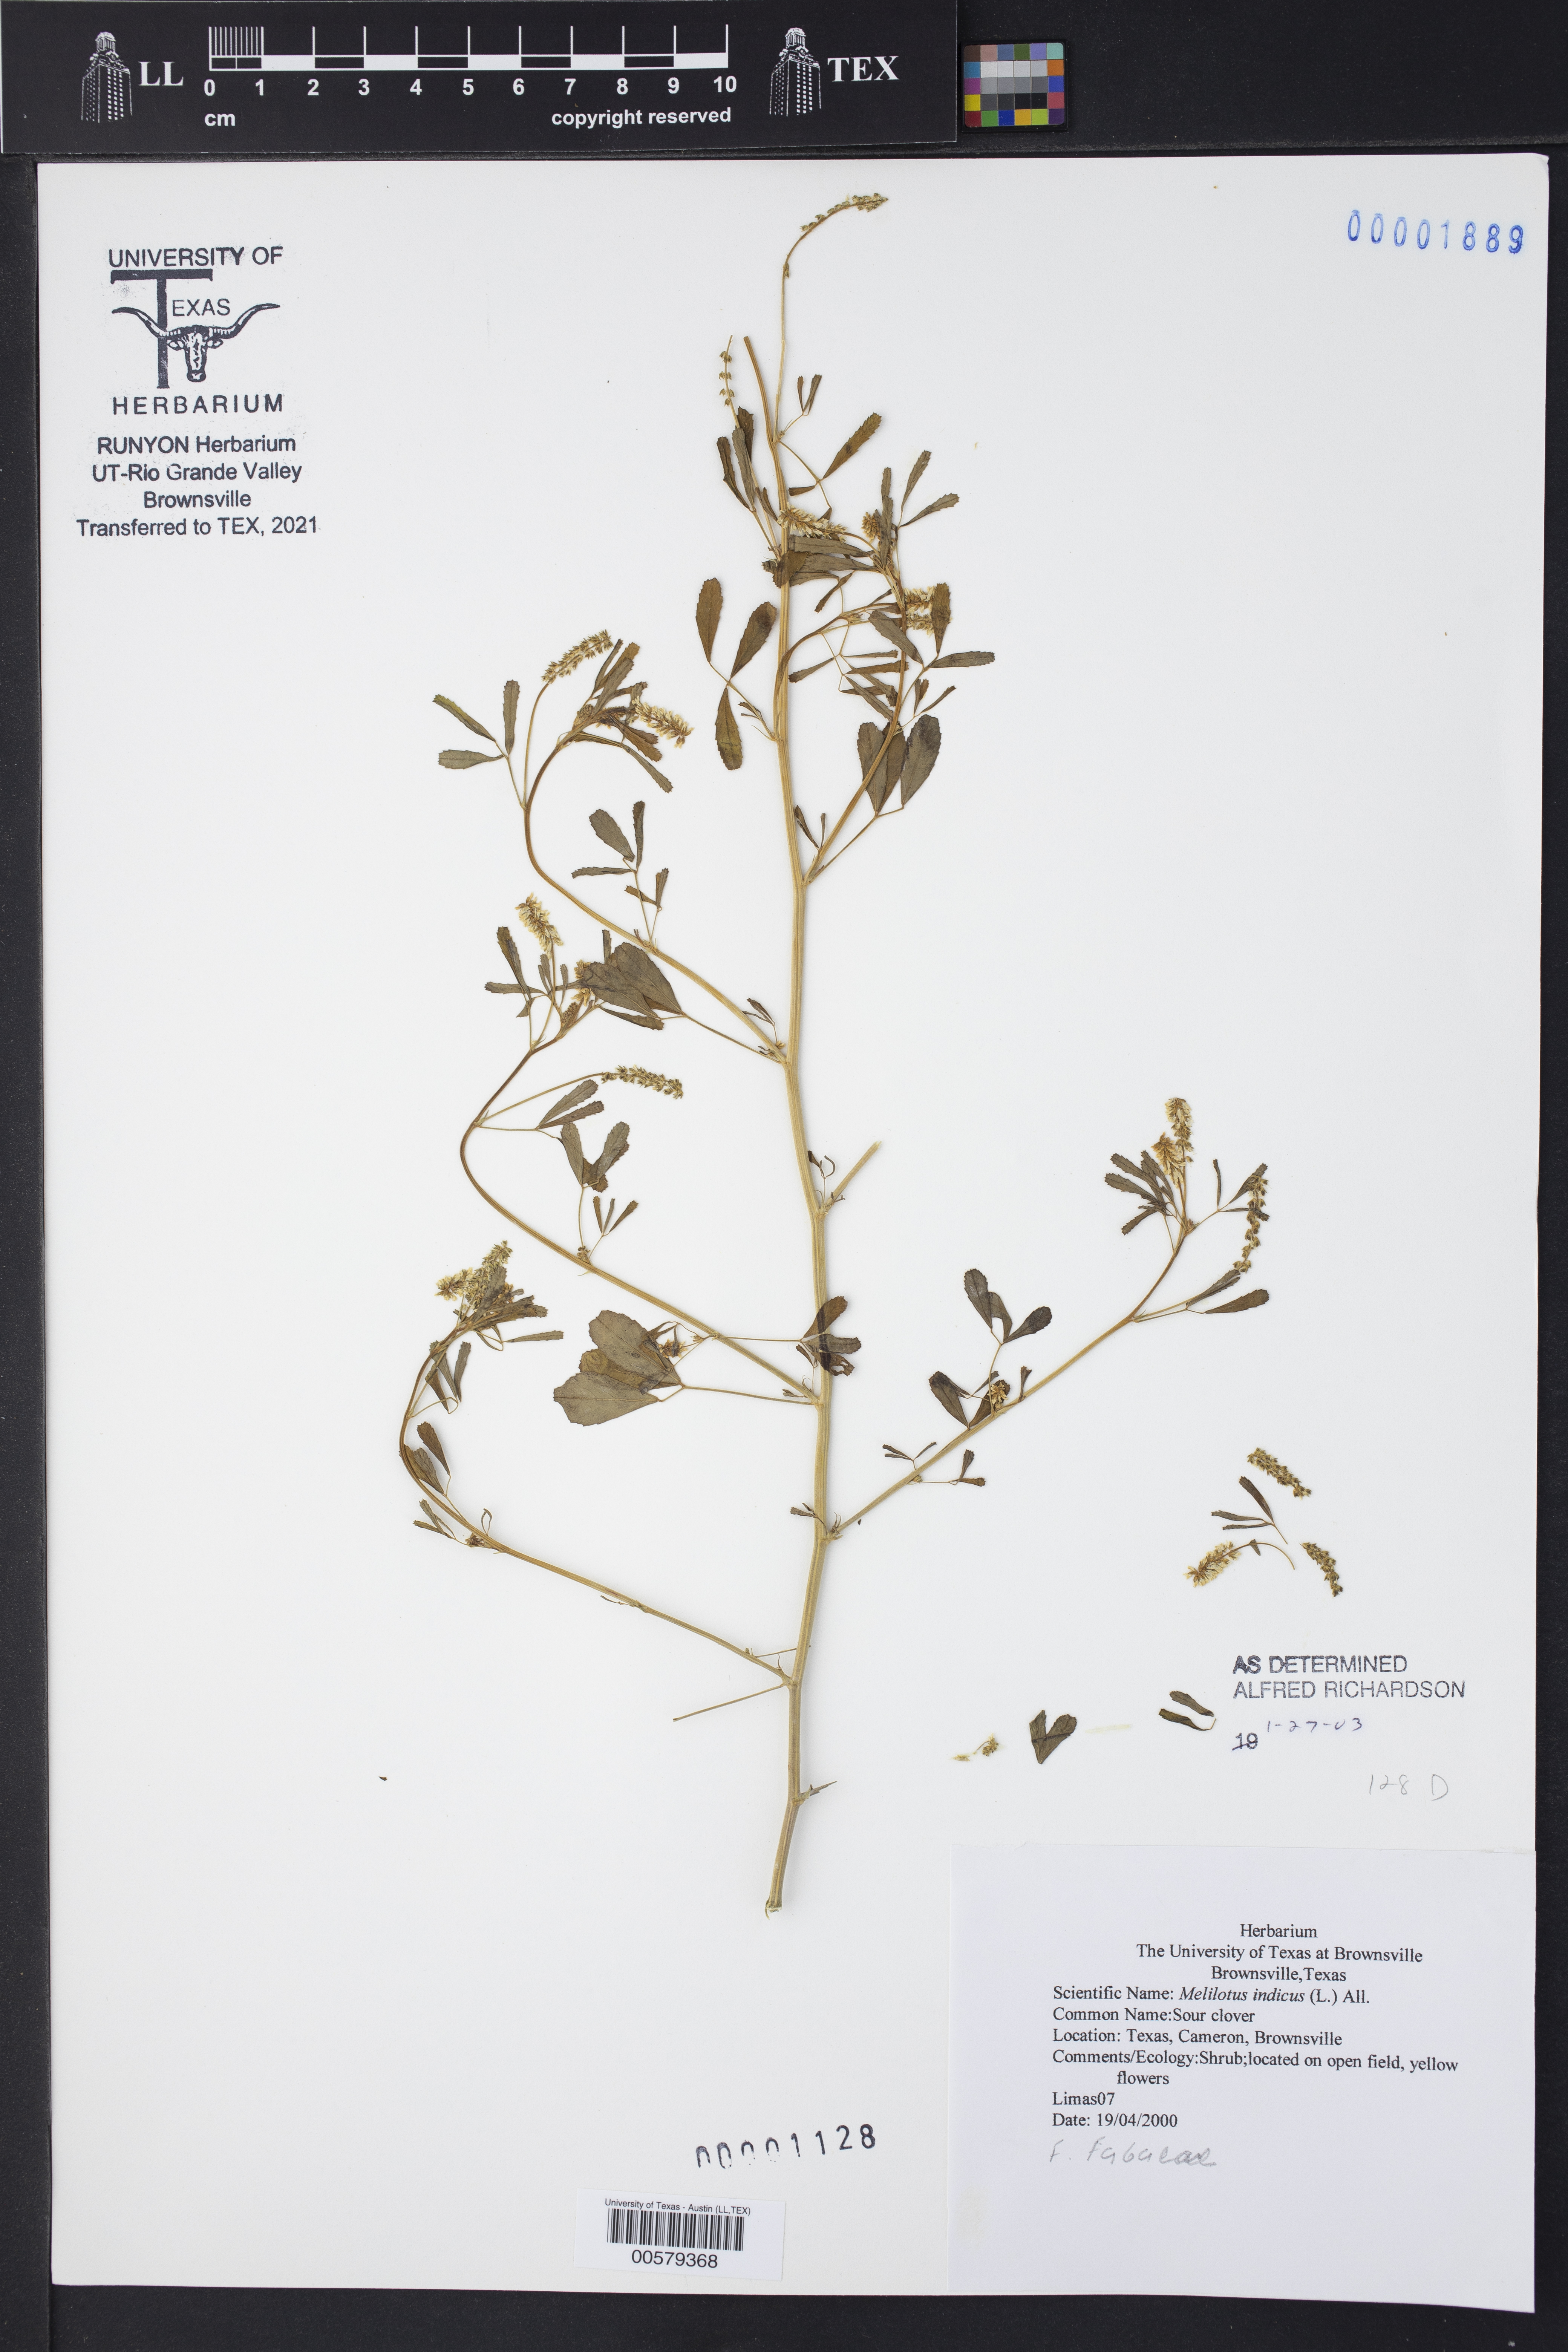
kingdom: Plantae
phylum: Tracheophyta
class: Magnoliopsida
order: Fabales
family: Fabaceae
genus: Melilotus
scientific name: Melilotus indicus
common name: Small melilot
